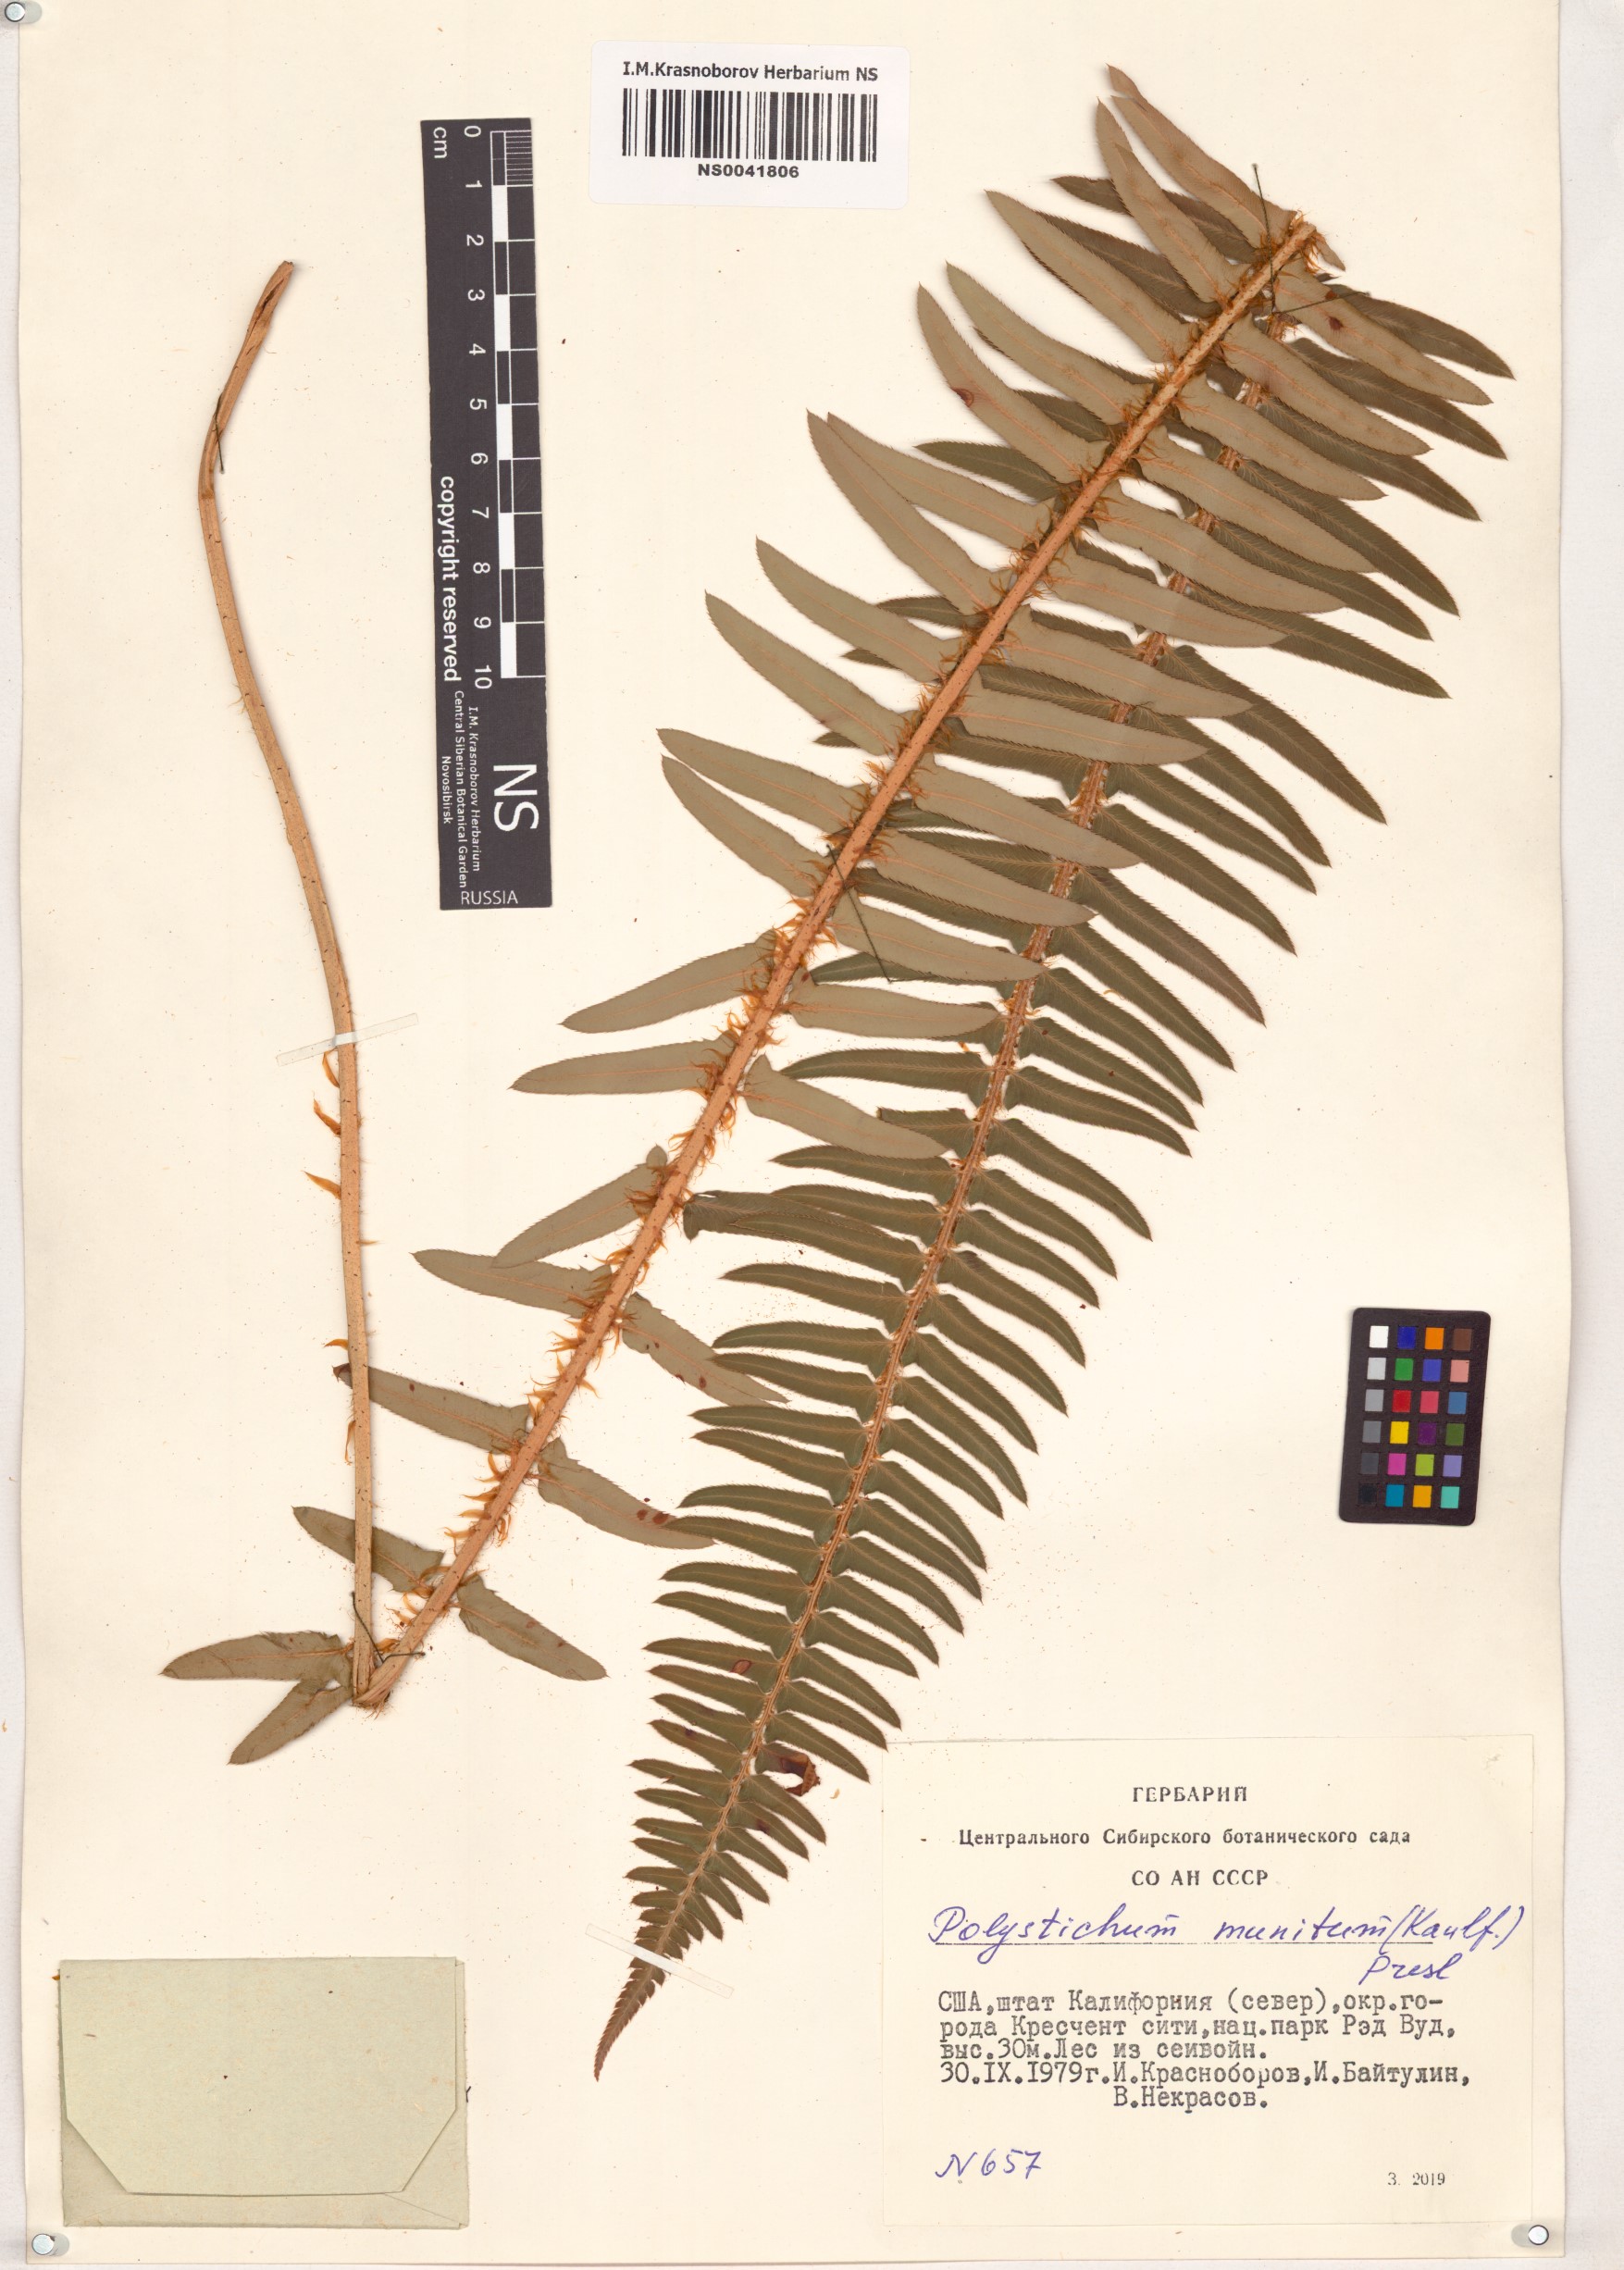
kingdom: Plantae
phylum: Tracheophyta
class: Polypodiopsida
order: Polypodiales
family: Dryopteridaceae
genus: Polystichum
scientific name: Polystichum munitum
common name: Western sword-fern
